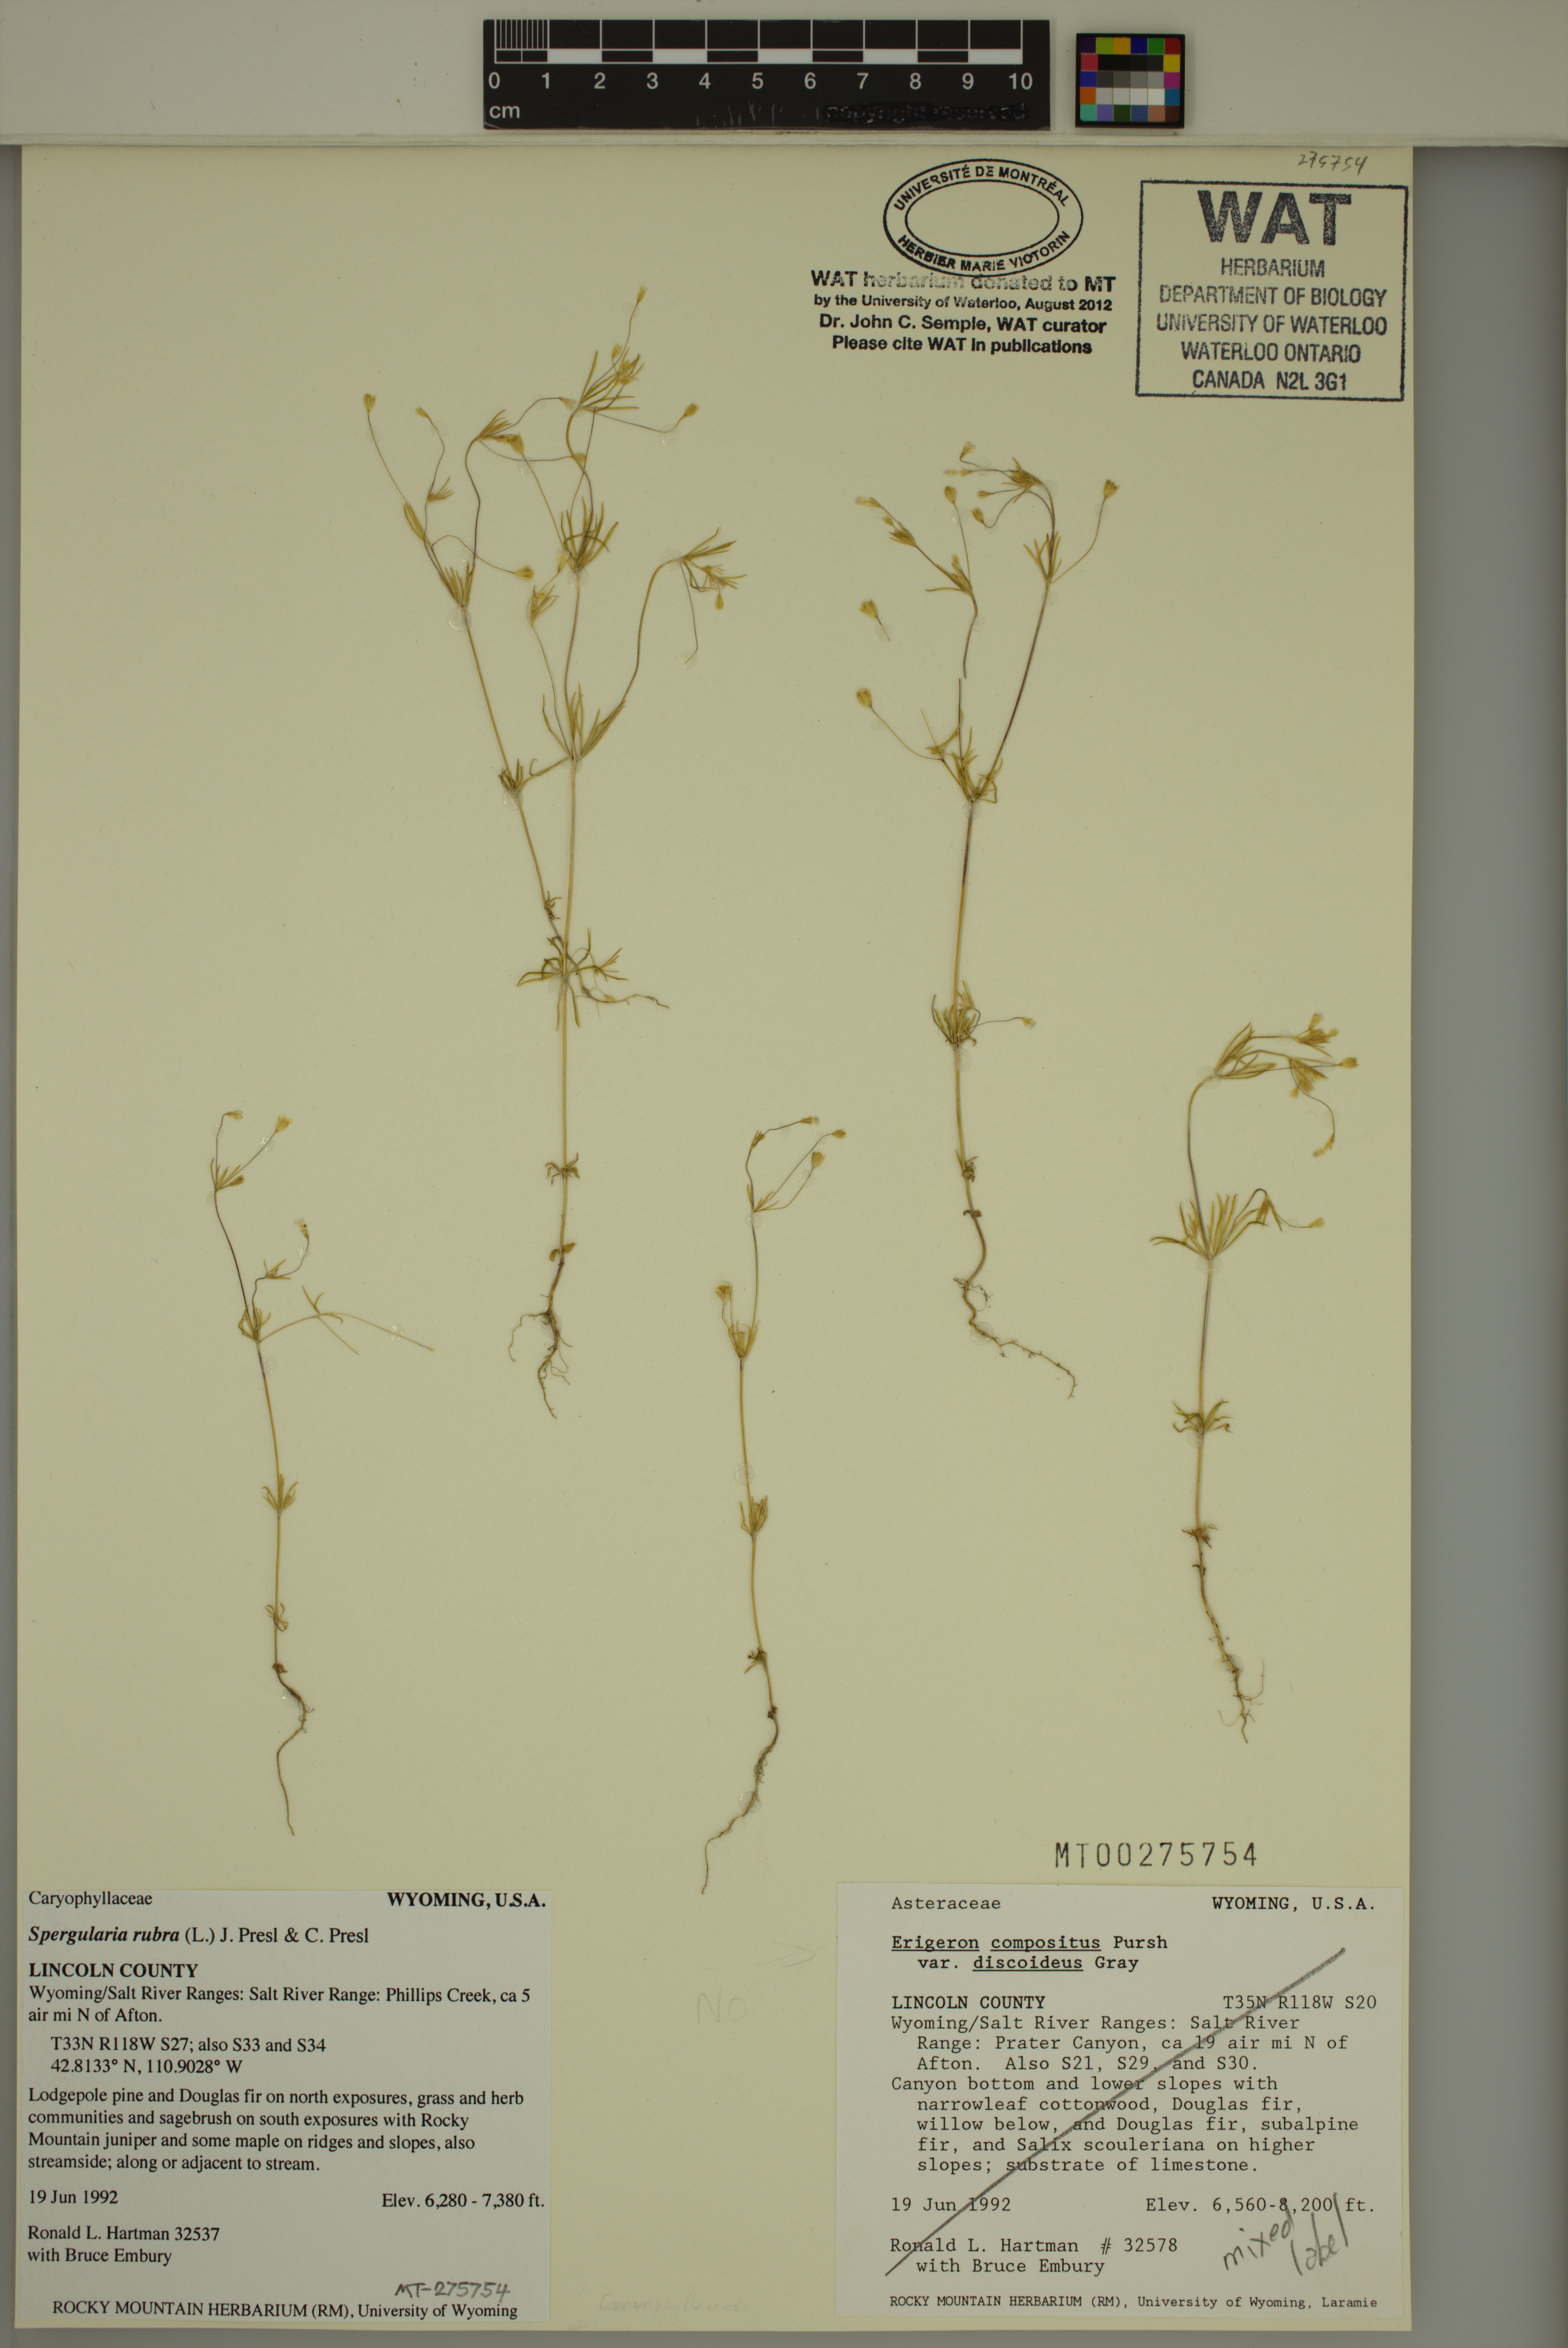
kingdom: Plantae
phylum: Tracheophyta
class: Magnoliopsida
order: Caryophyllales
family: Caryophyllaceae
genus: Spergularia
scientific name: Spergularia rubra
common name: Red sand-spurrey
